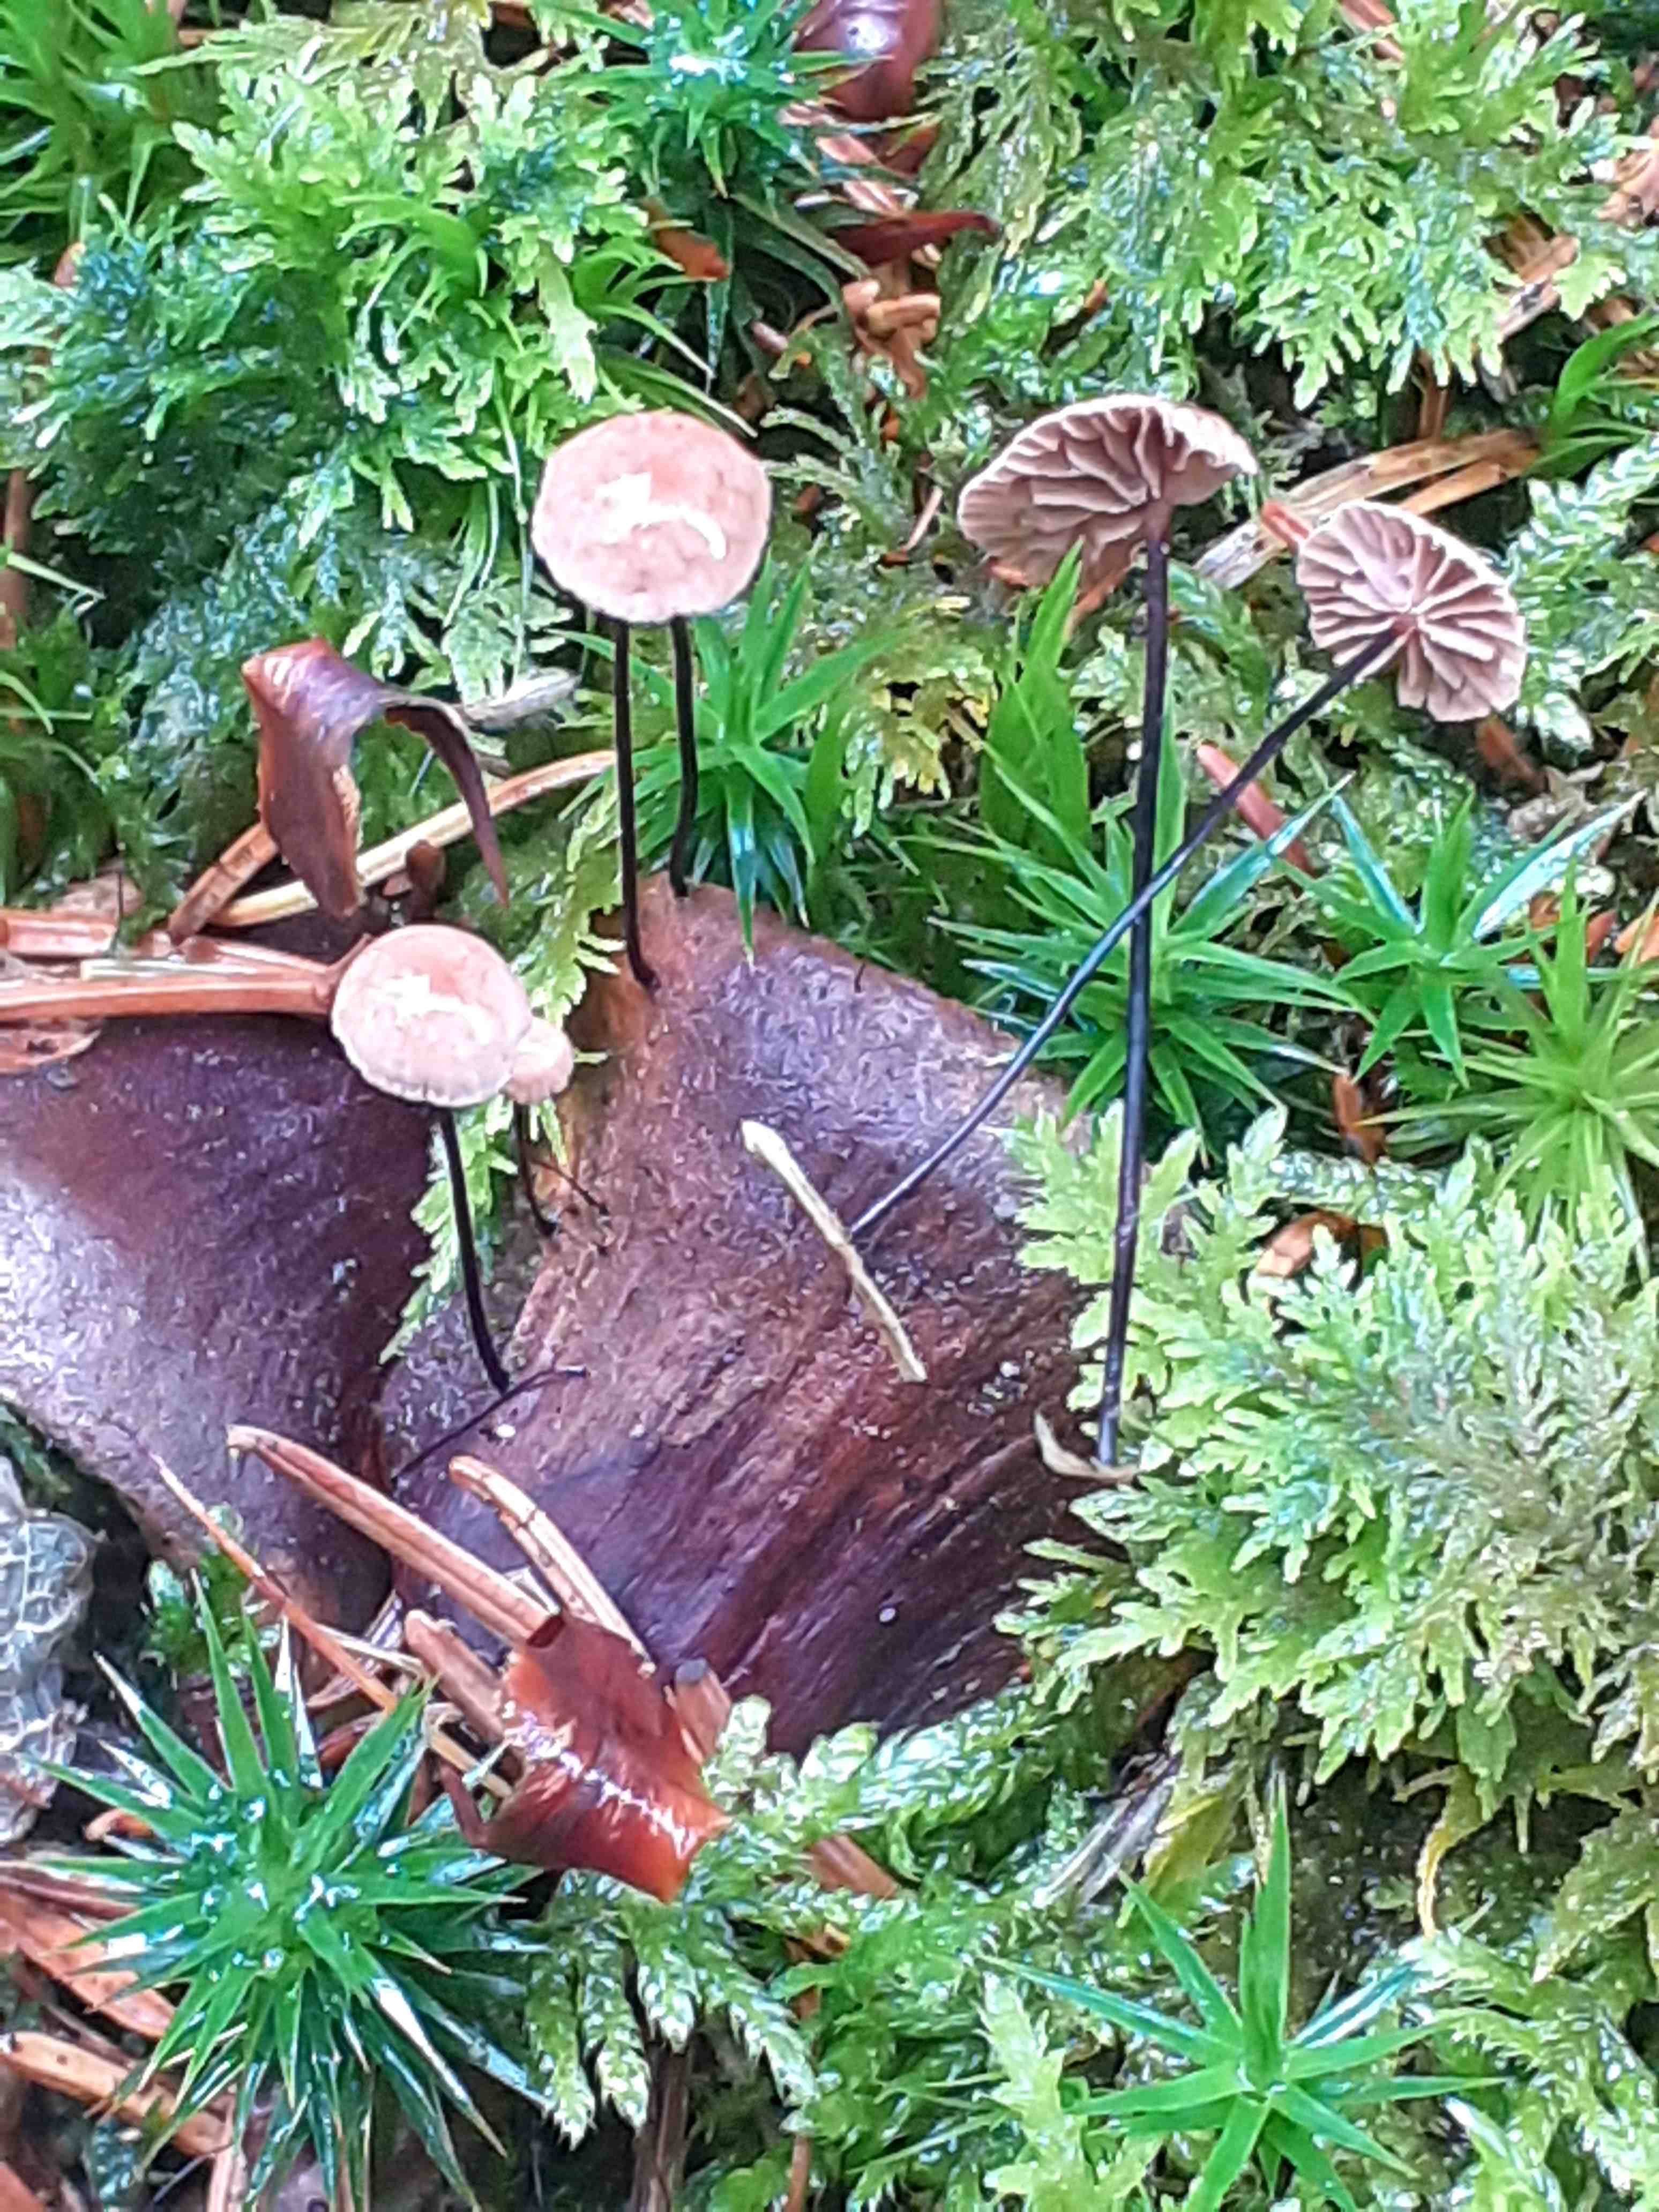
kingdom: Fungi
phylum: Basidiomycota
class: Agaricomycetes
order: Agaricales
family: Omphalotaceae
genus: Gymnopus
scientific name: Gymnopus androsaceus
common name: trådstokket fladhat
